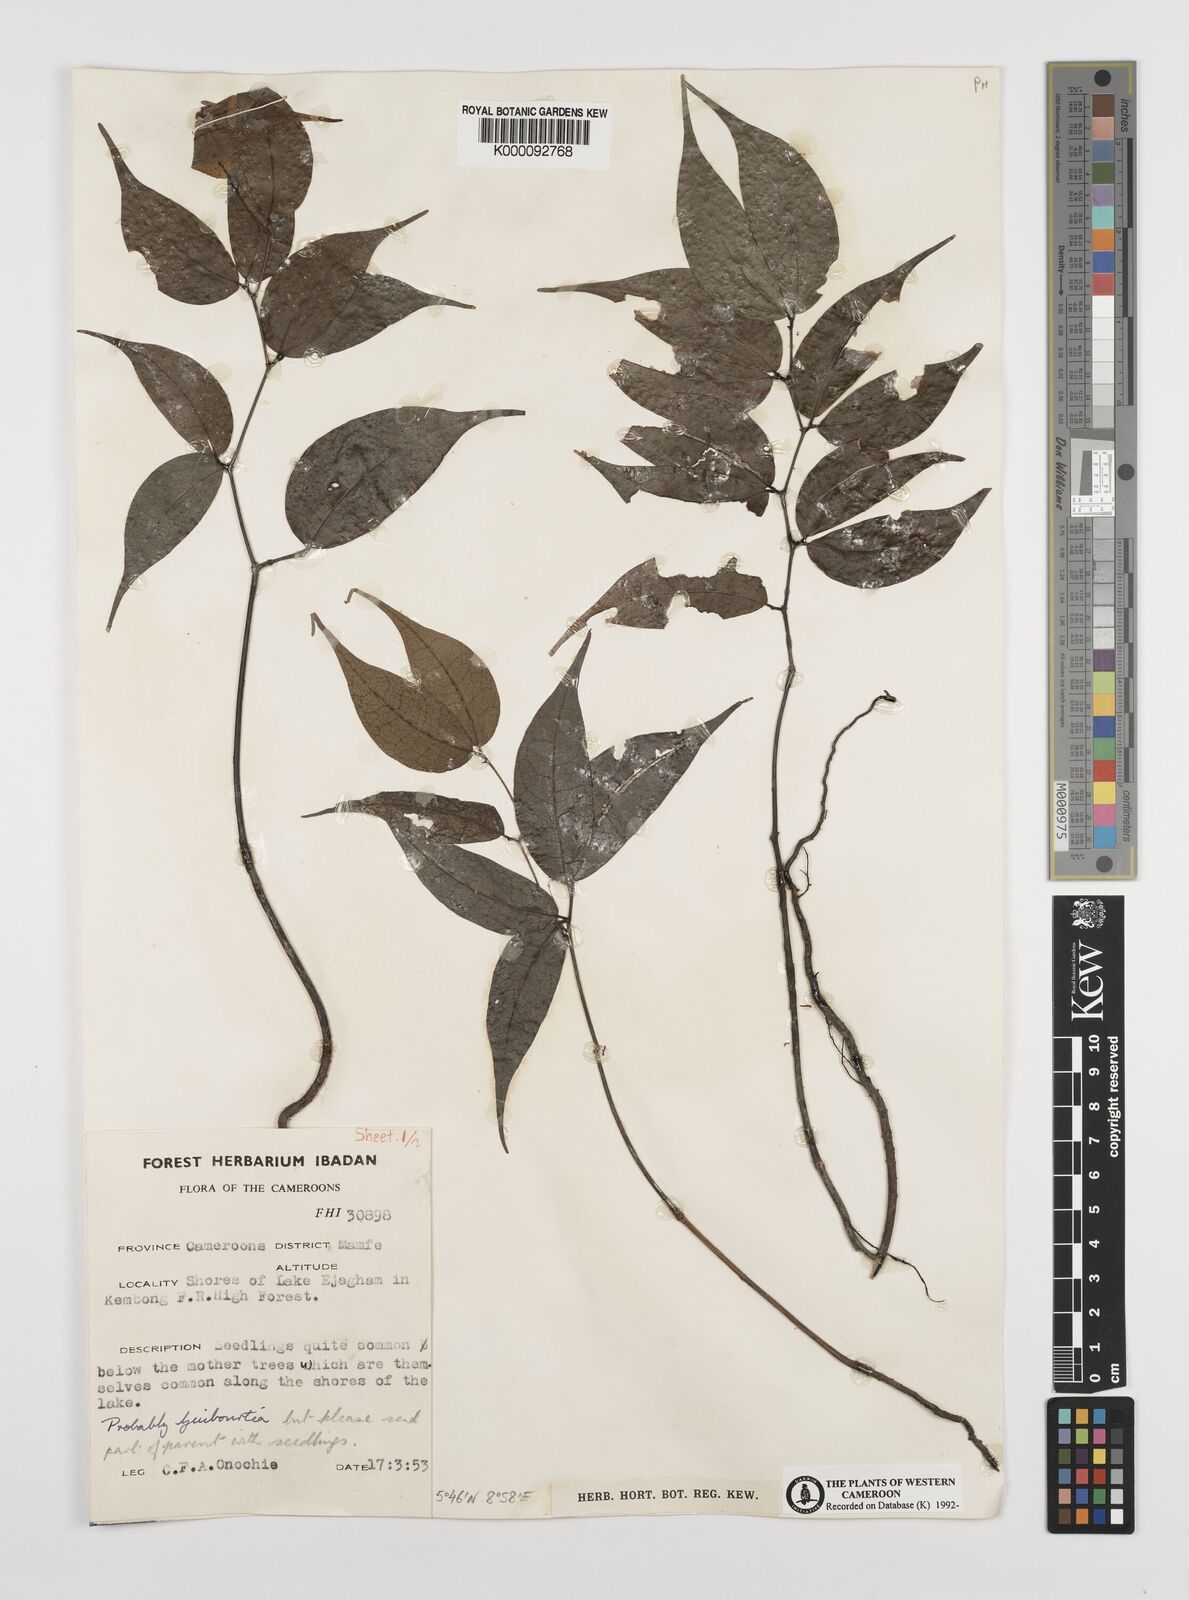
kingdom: Plantae
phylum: Tracheophyta
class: Magnoliopsida
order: Fabales
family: Fabaceae
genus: Guibourtia
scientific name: Guibourtia
